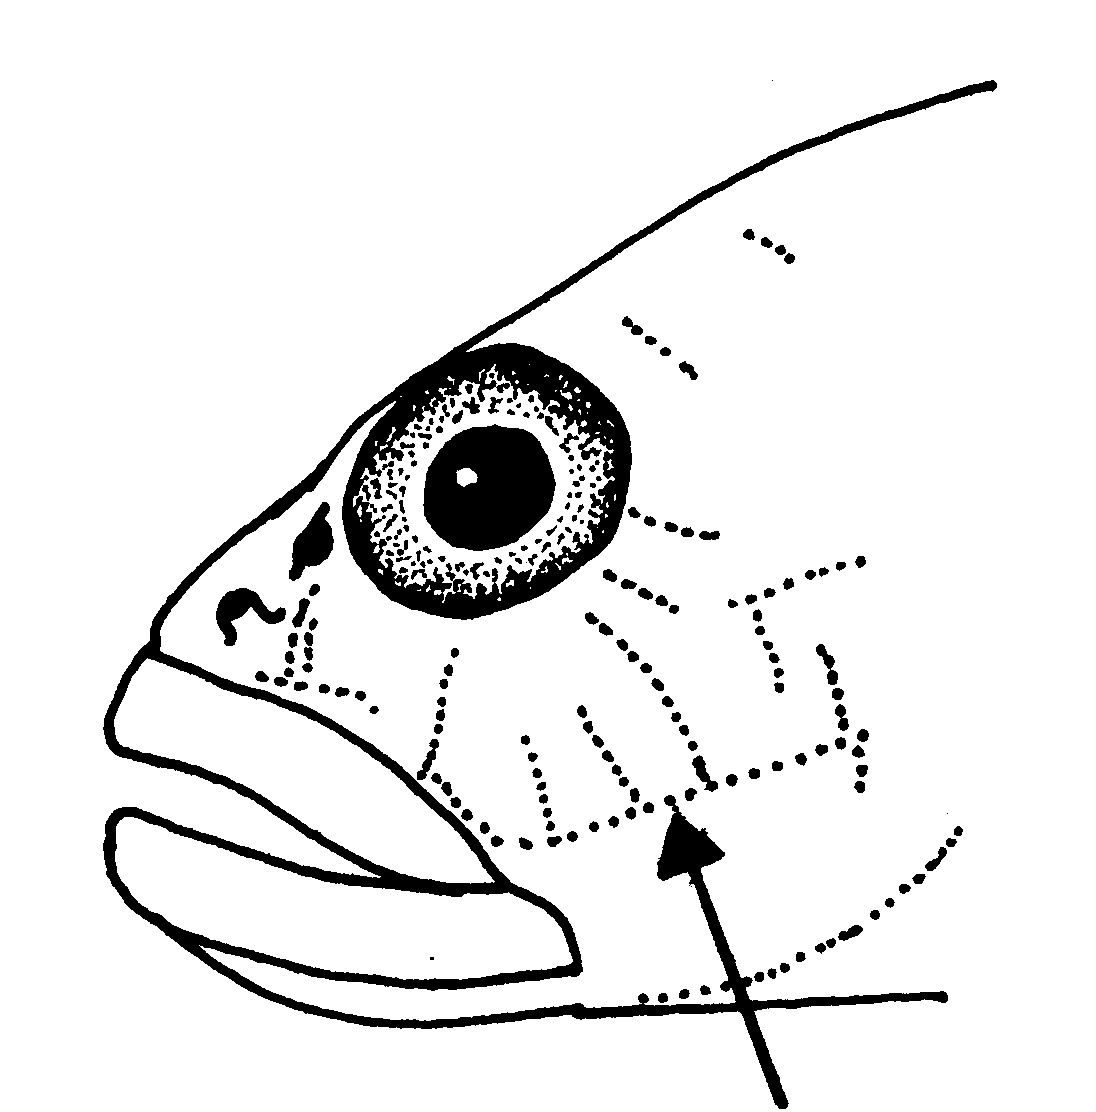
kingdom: Animalia
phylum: Chordata
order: Perciformes
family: Gobiidae
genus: Caffrogobius
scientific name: Caffrogobius
